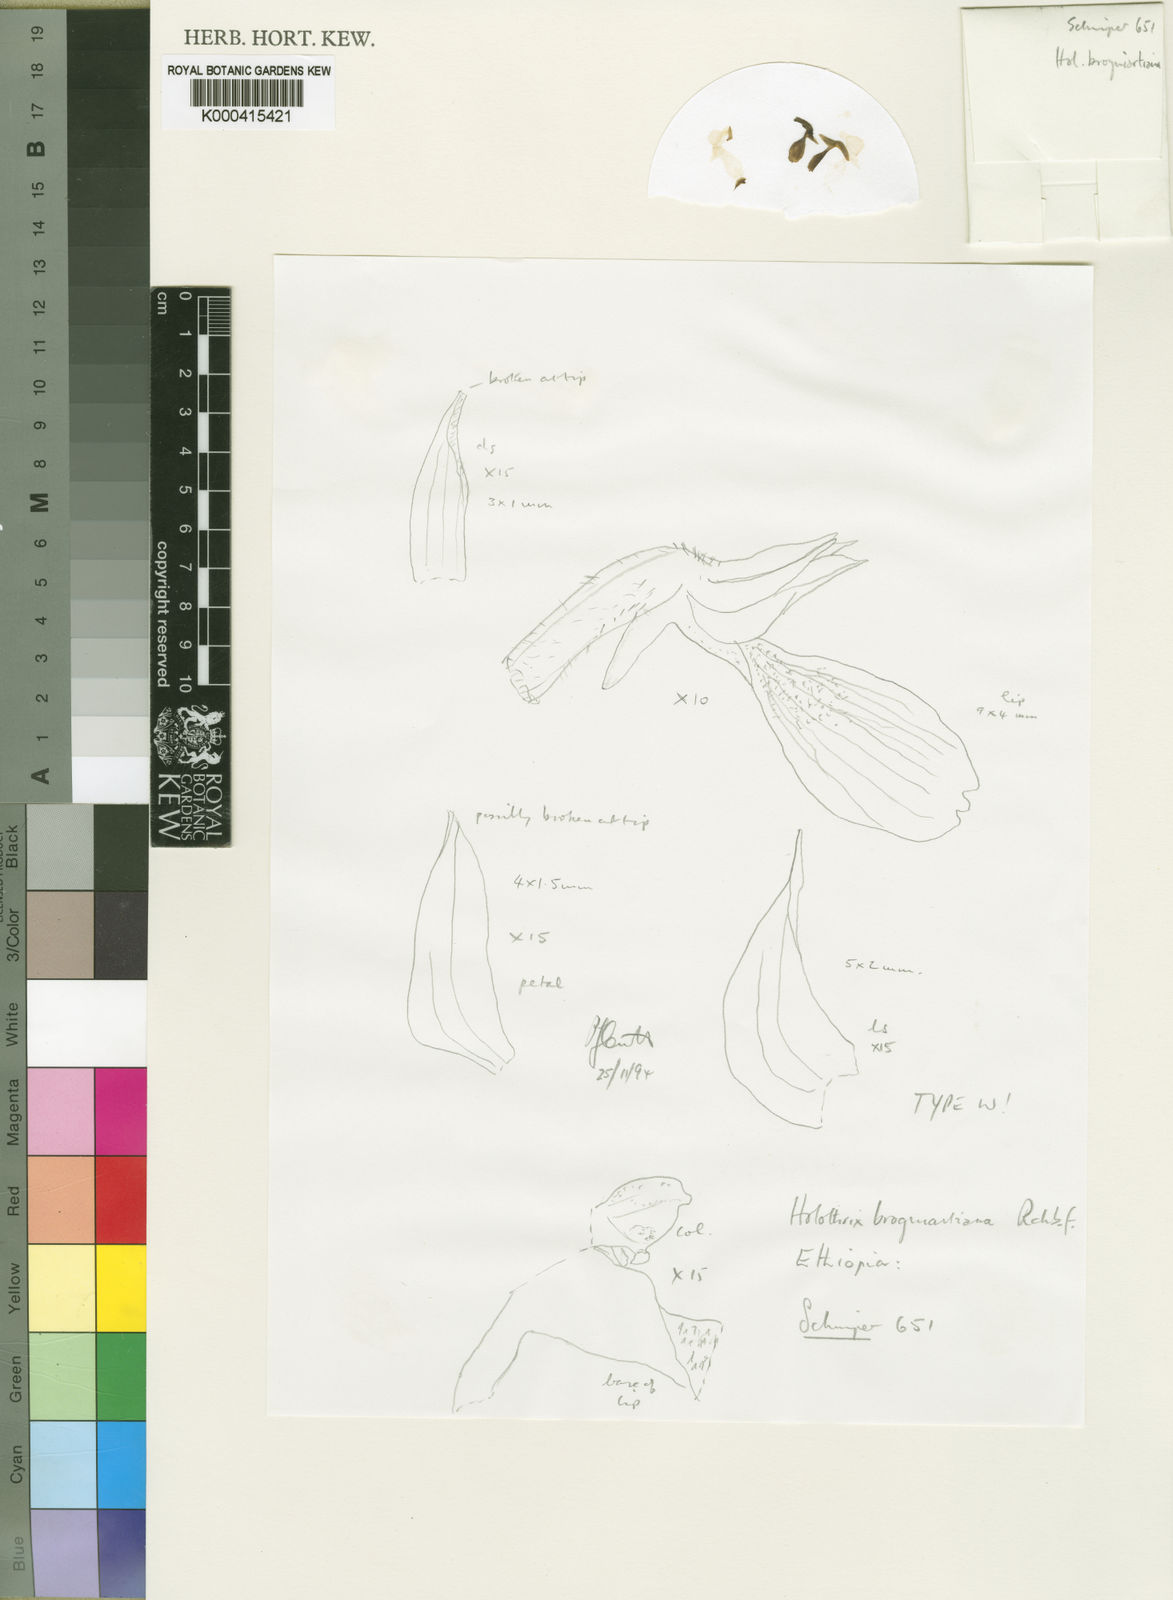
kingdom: Plantae
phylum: Tracheophyta
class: Liliopsida
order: Asparagales
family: Orchidaceae
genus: Holothrix
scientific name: Holothrix brongniartiana
